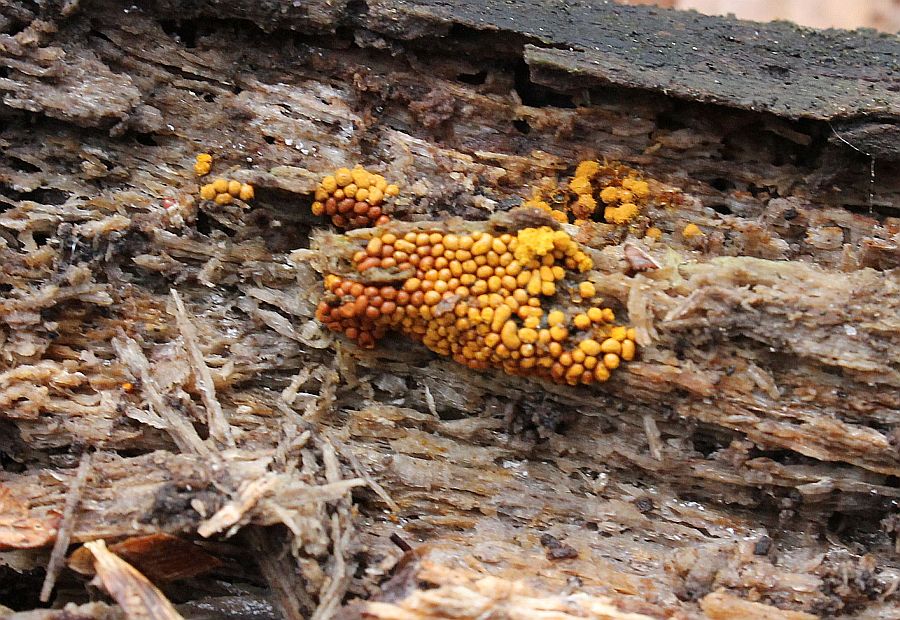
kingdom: Protozoa
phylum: Mycetozoa
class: Myxomycetes
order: Trichiales
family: Trichiaceae
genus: Trichia
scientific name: Trichia scabra
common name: tæppe-hårbold
